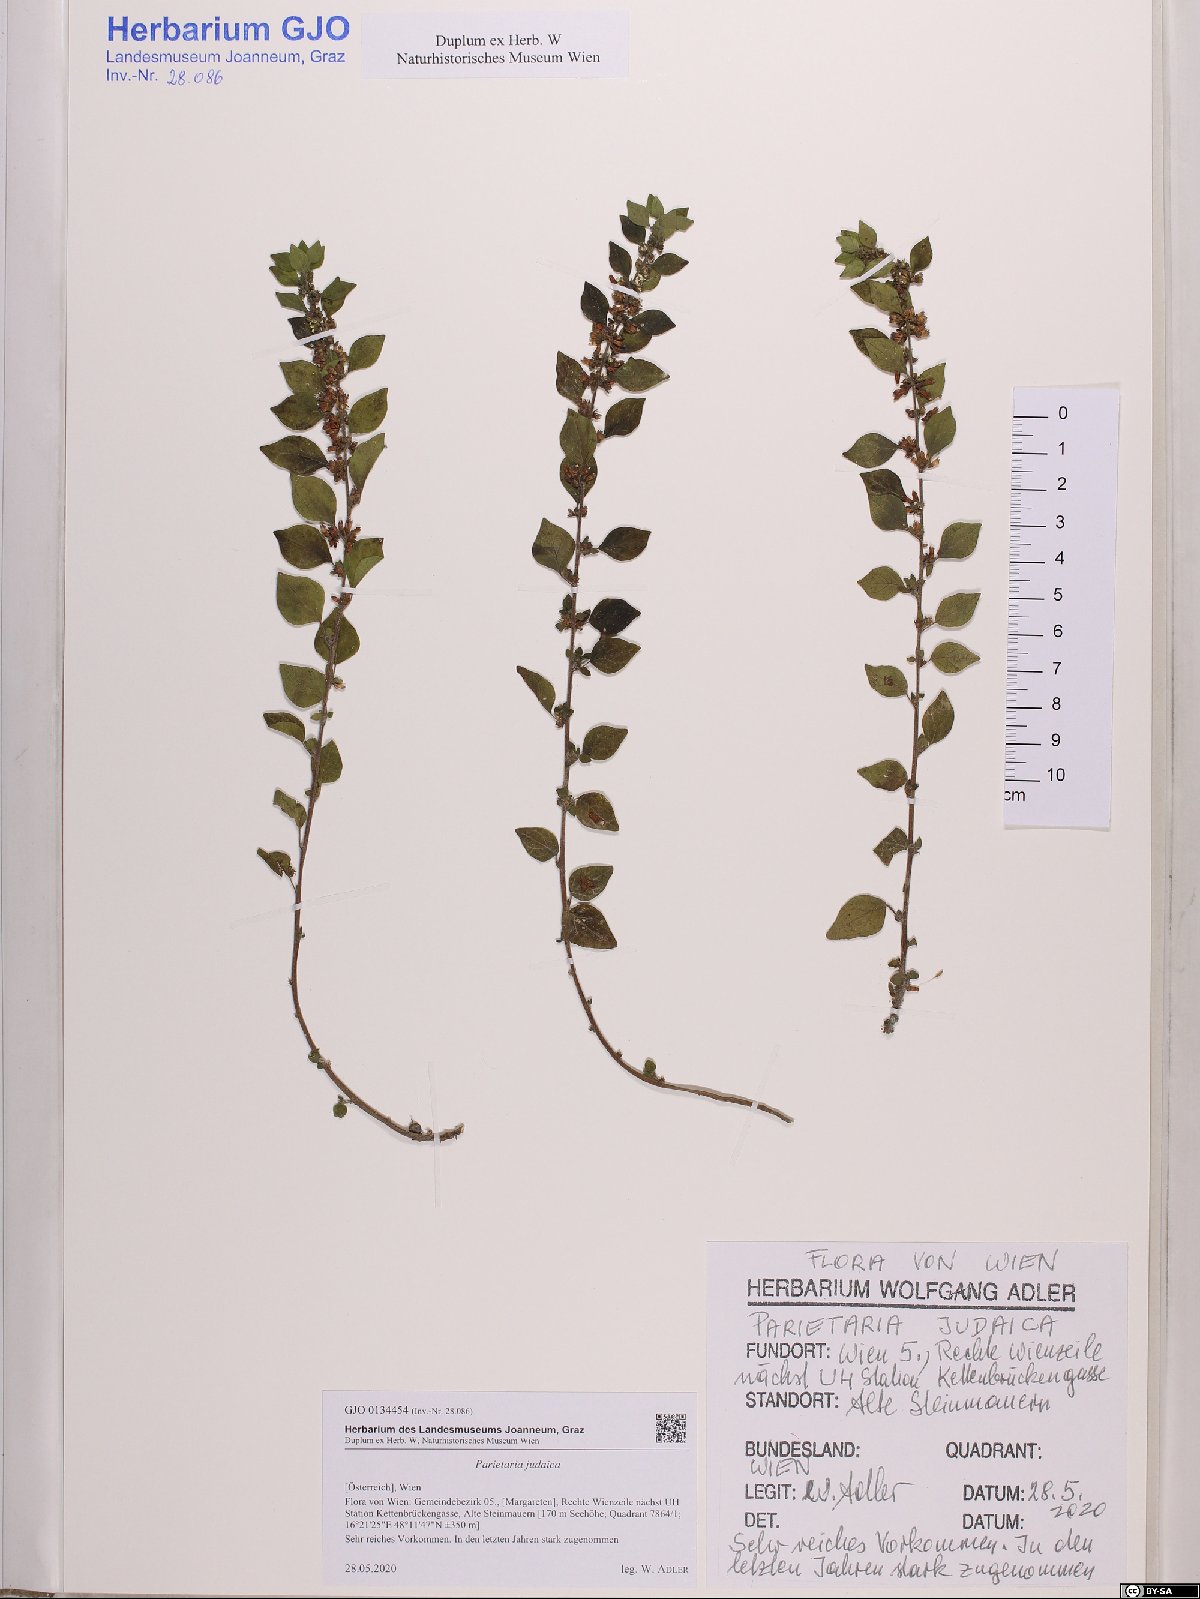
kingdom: Plantae
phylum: Tracheophyta
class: Magnoliopsida
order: Rosales
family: Urticaceae
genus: Parietaria
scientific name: Parietaria judaica
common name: Pellitory-of-the-wall
